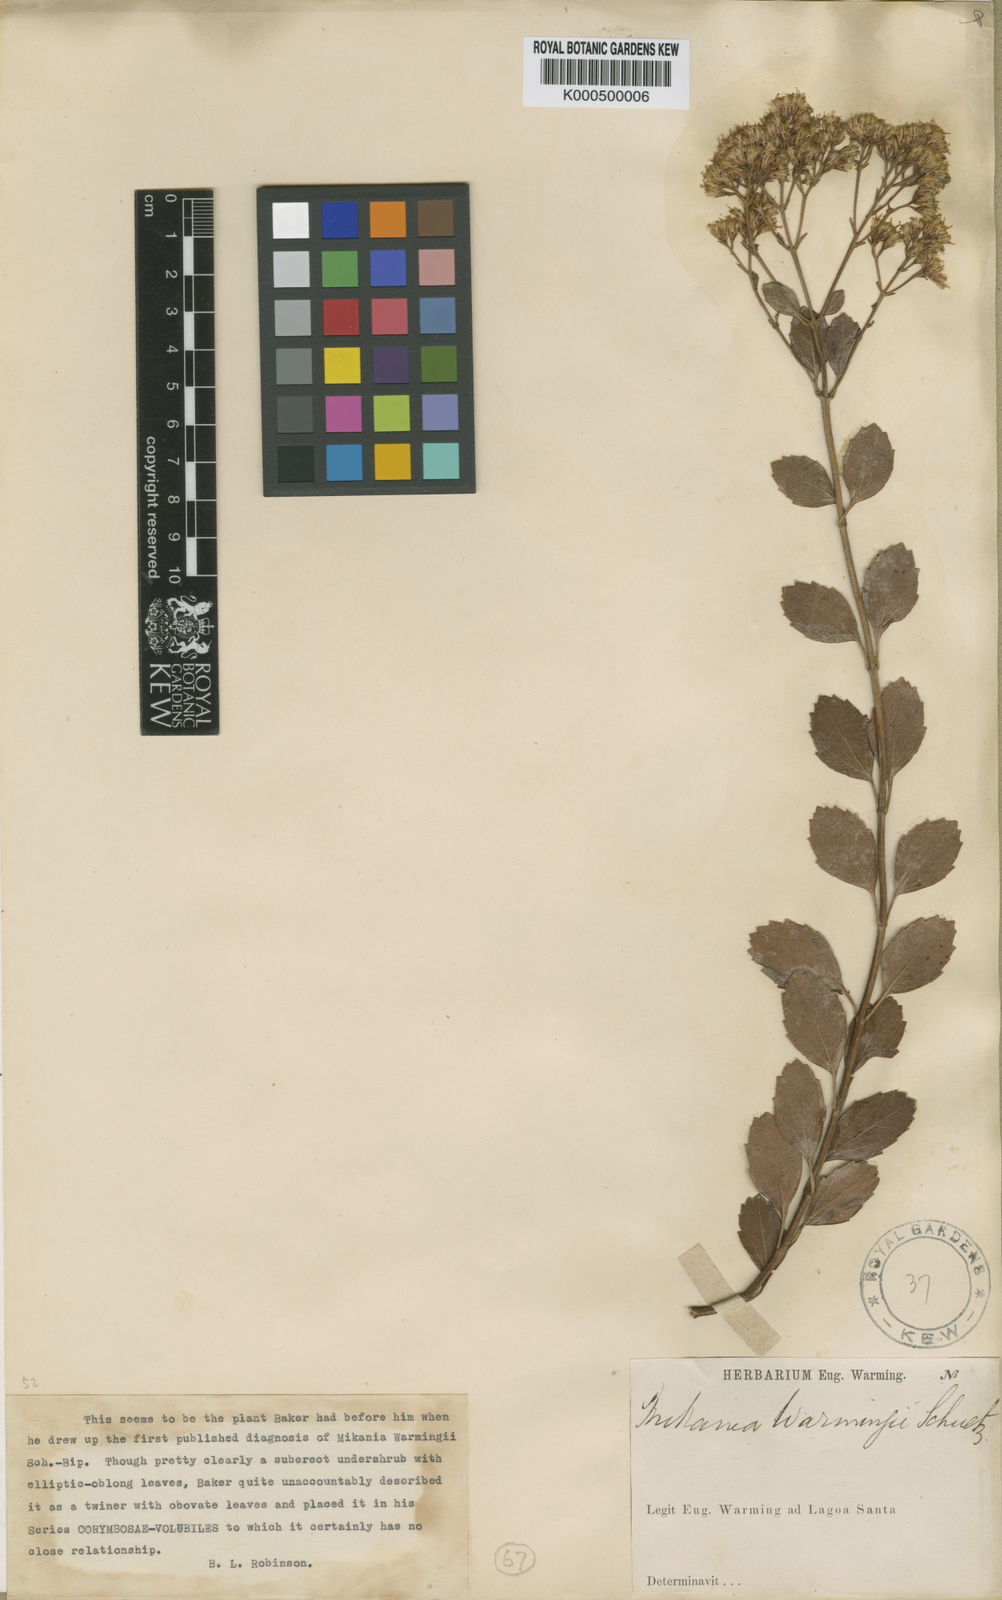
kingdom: Plantae
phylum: Tracheophyta
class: Magnoliopsida
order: Asterales
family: Asteraceae
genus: Mikania
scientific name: Mikania warmingii
